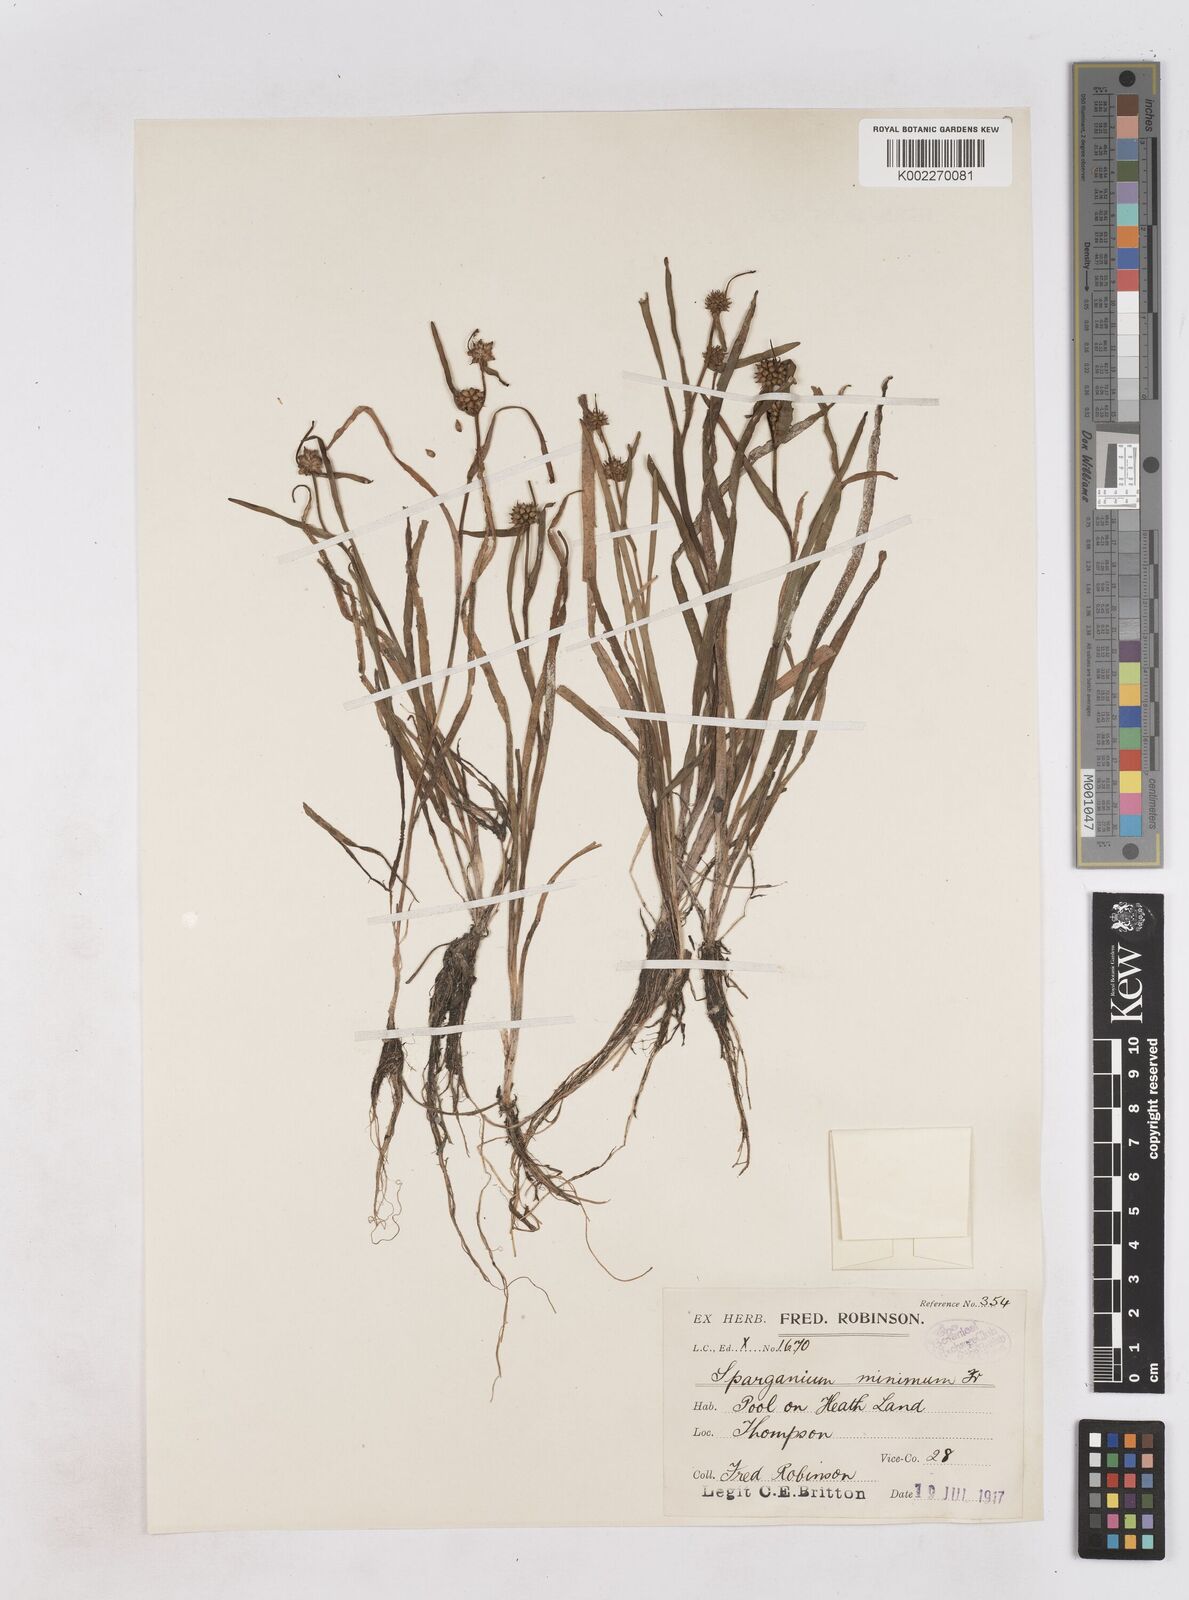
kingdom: Plantae
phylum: Tracheophyta
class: Liliopsida
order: Poales
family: Typhaceae
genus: Sparganium
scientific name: Sparganium natans
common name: Least bur-reed
